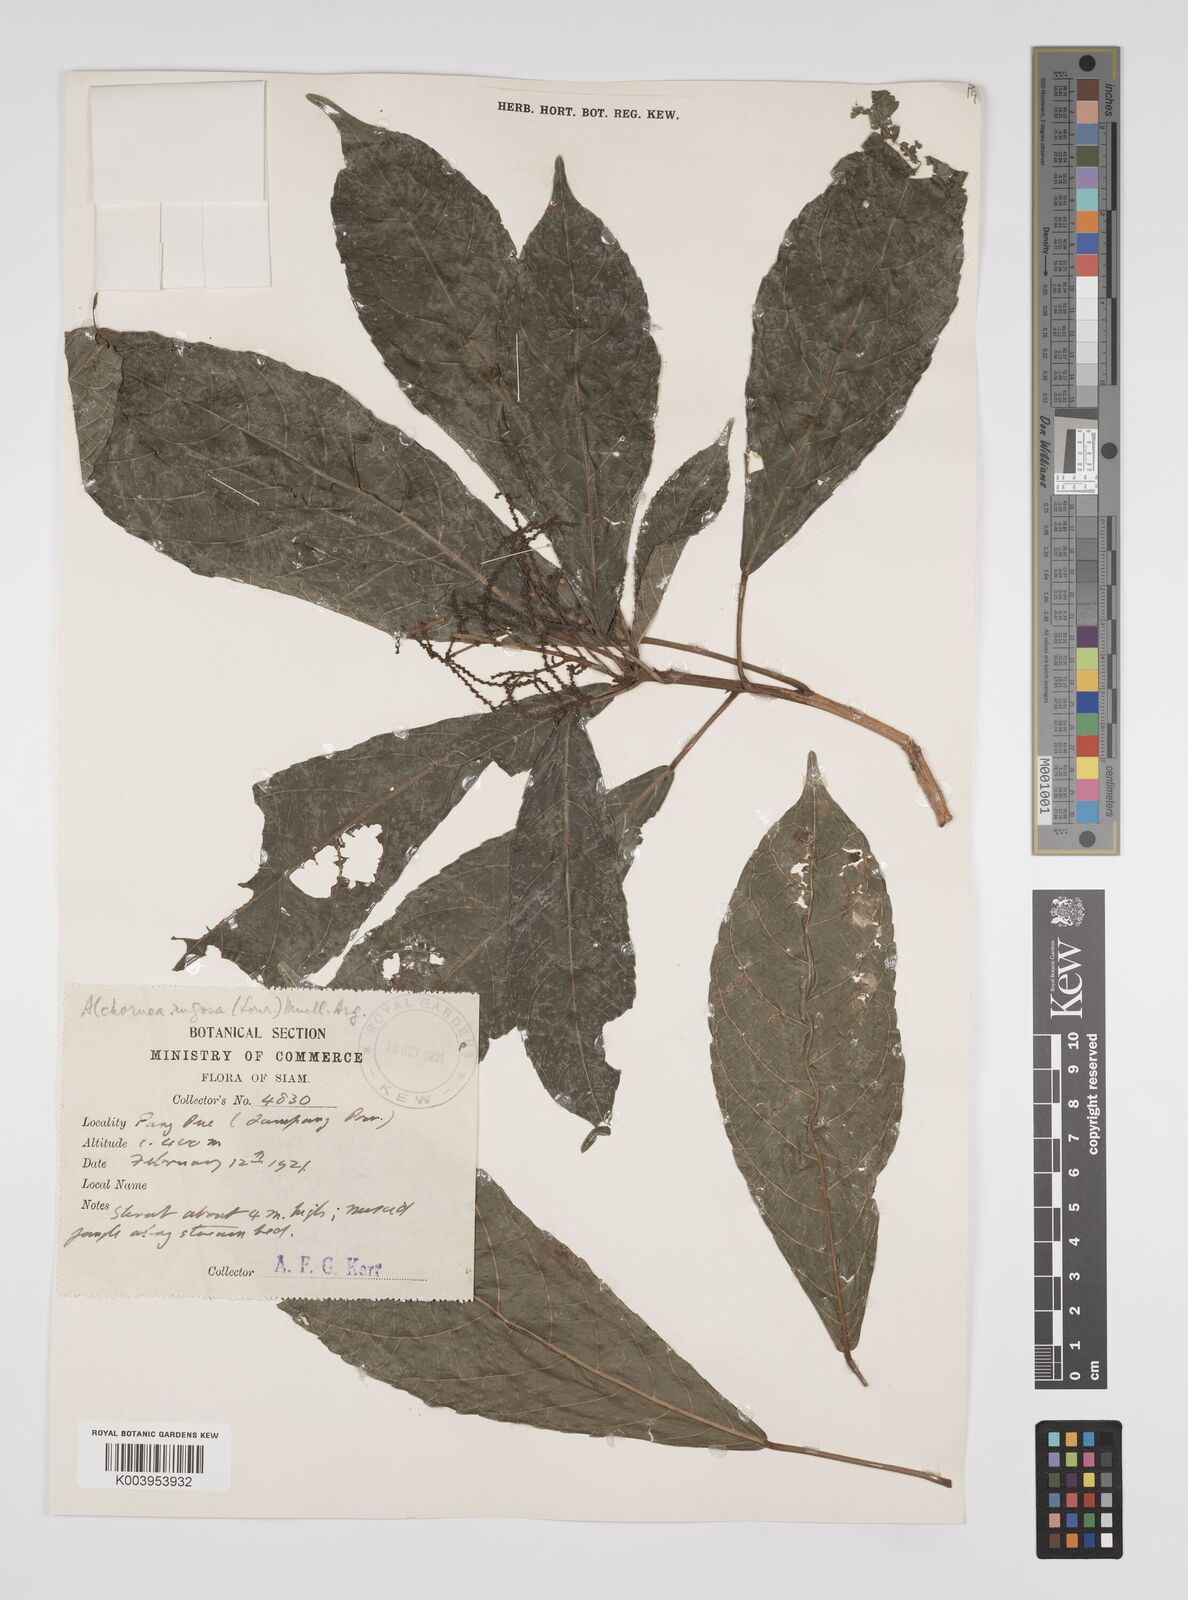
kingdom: Plantae
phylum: Tracheophyta
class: Magnoliopsida
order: Malpighiales
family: Euphorbiaceae
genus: Alchornea
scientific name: Alchornea rugosa
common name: Alchorntree
